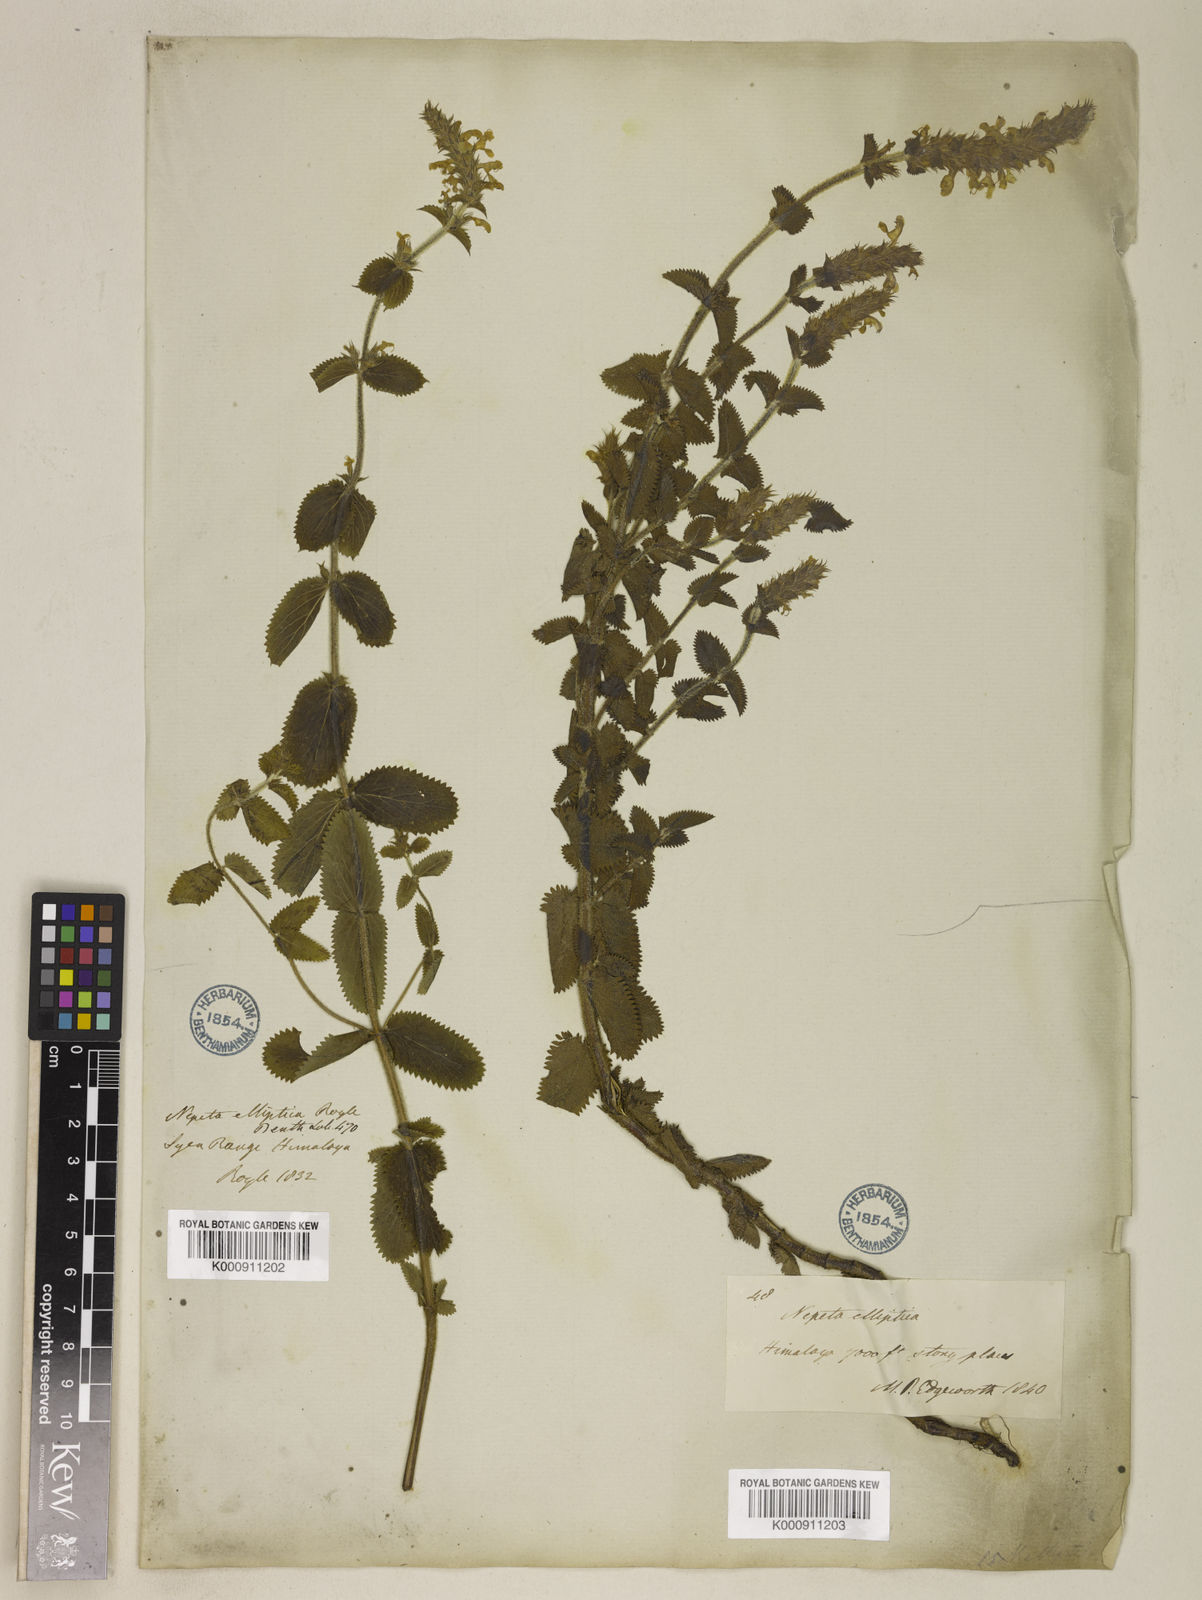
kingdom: Plantae
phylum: Tracheophyta
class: Magnoliopsida
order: Lamiales
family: Lamiaceae
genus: Nepeta
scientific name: Nepeta
